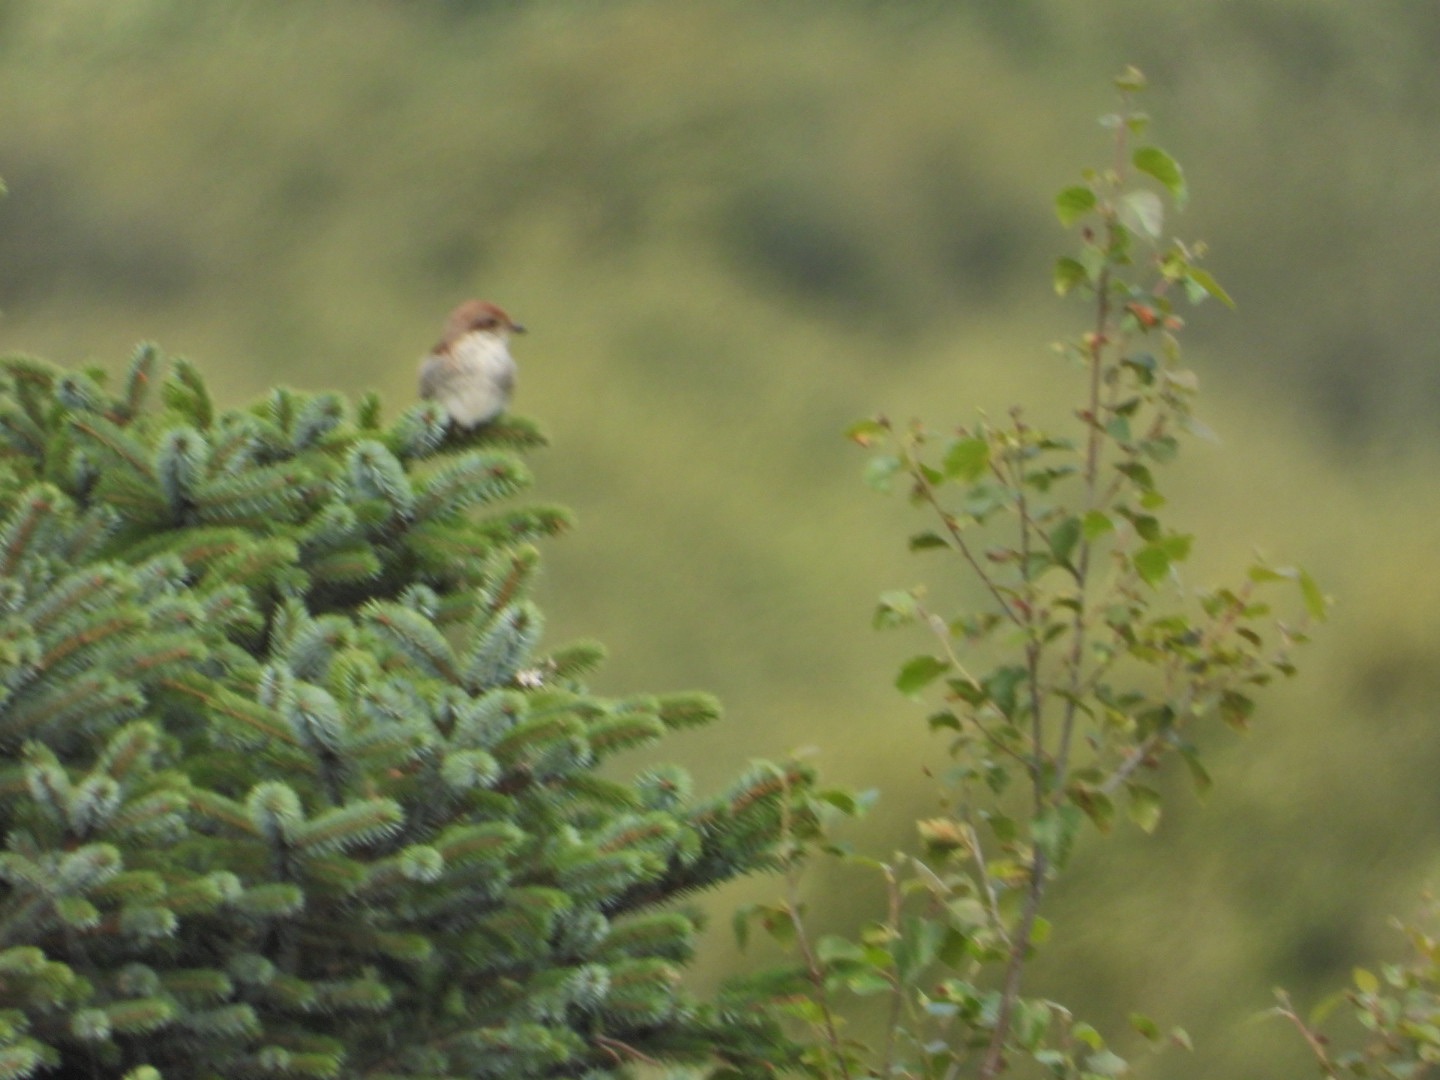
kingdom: Animalia
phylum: Chordata
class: Aves
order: Passeriformes
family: Laniidae
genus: Lanius
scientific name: Lanius collurio
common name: Rødrygget tornskade
